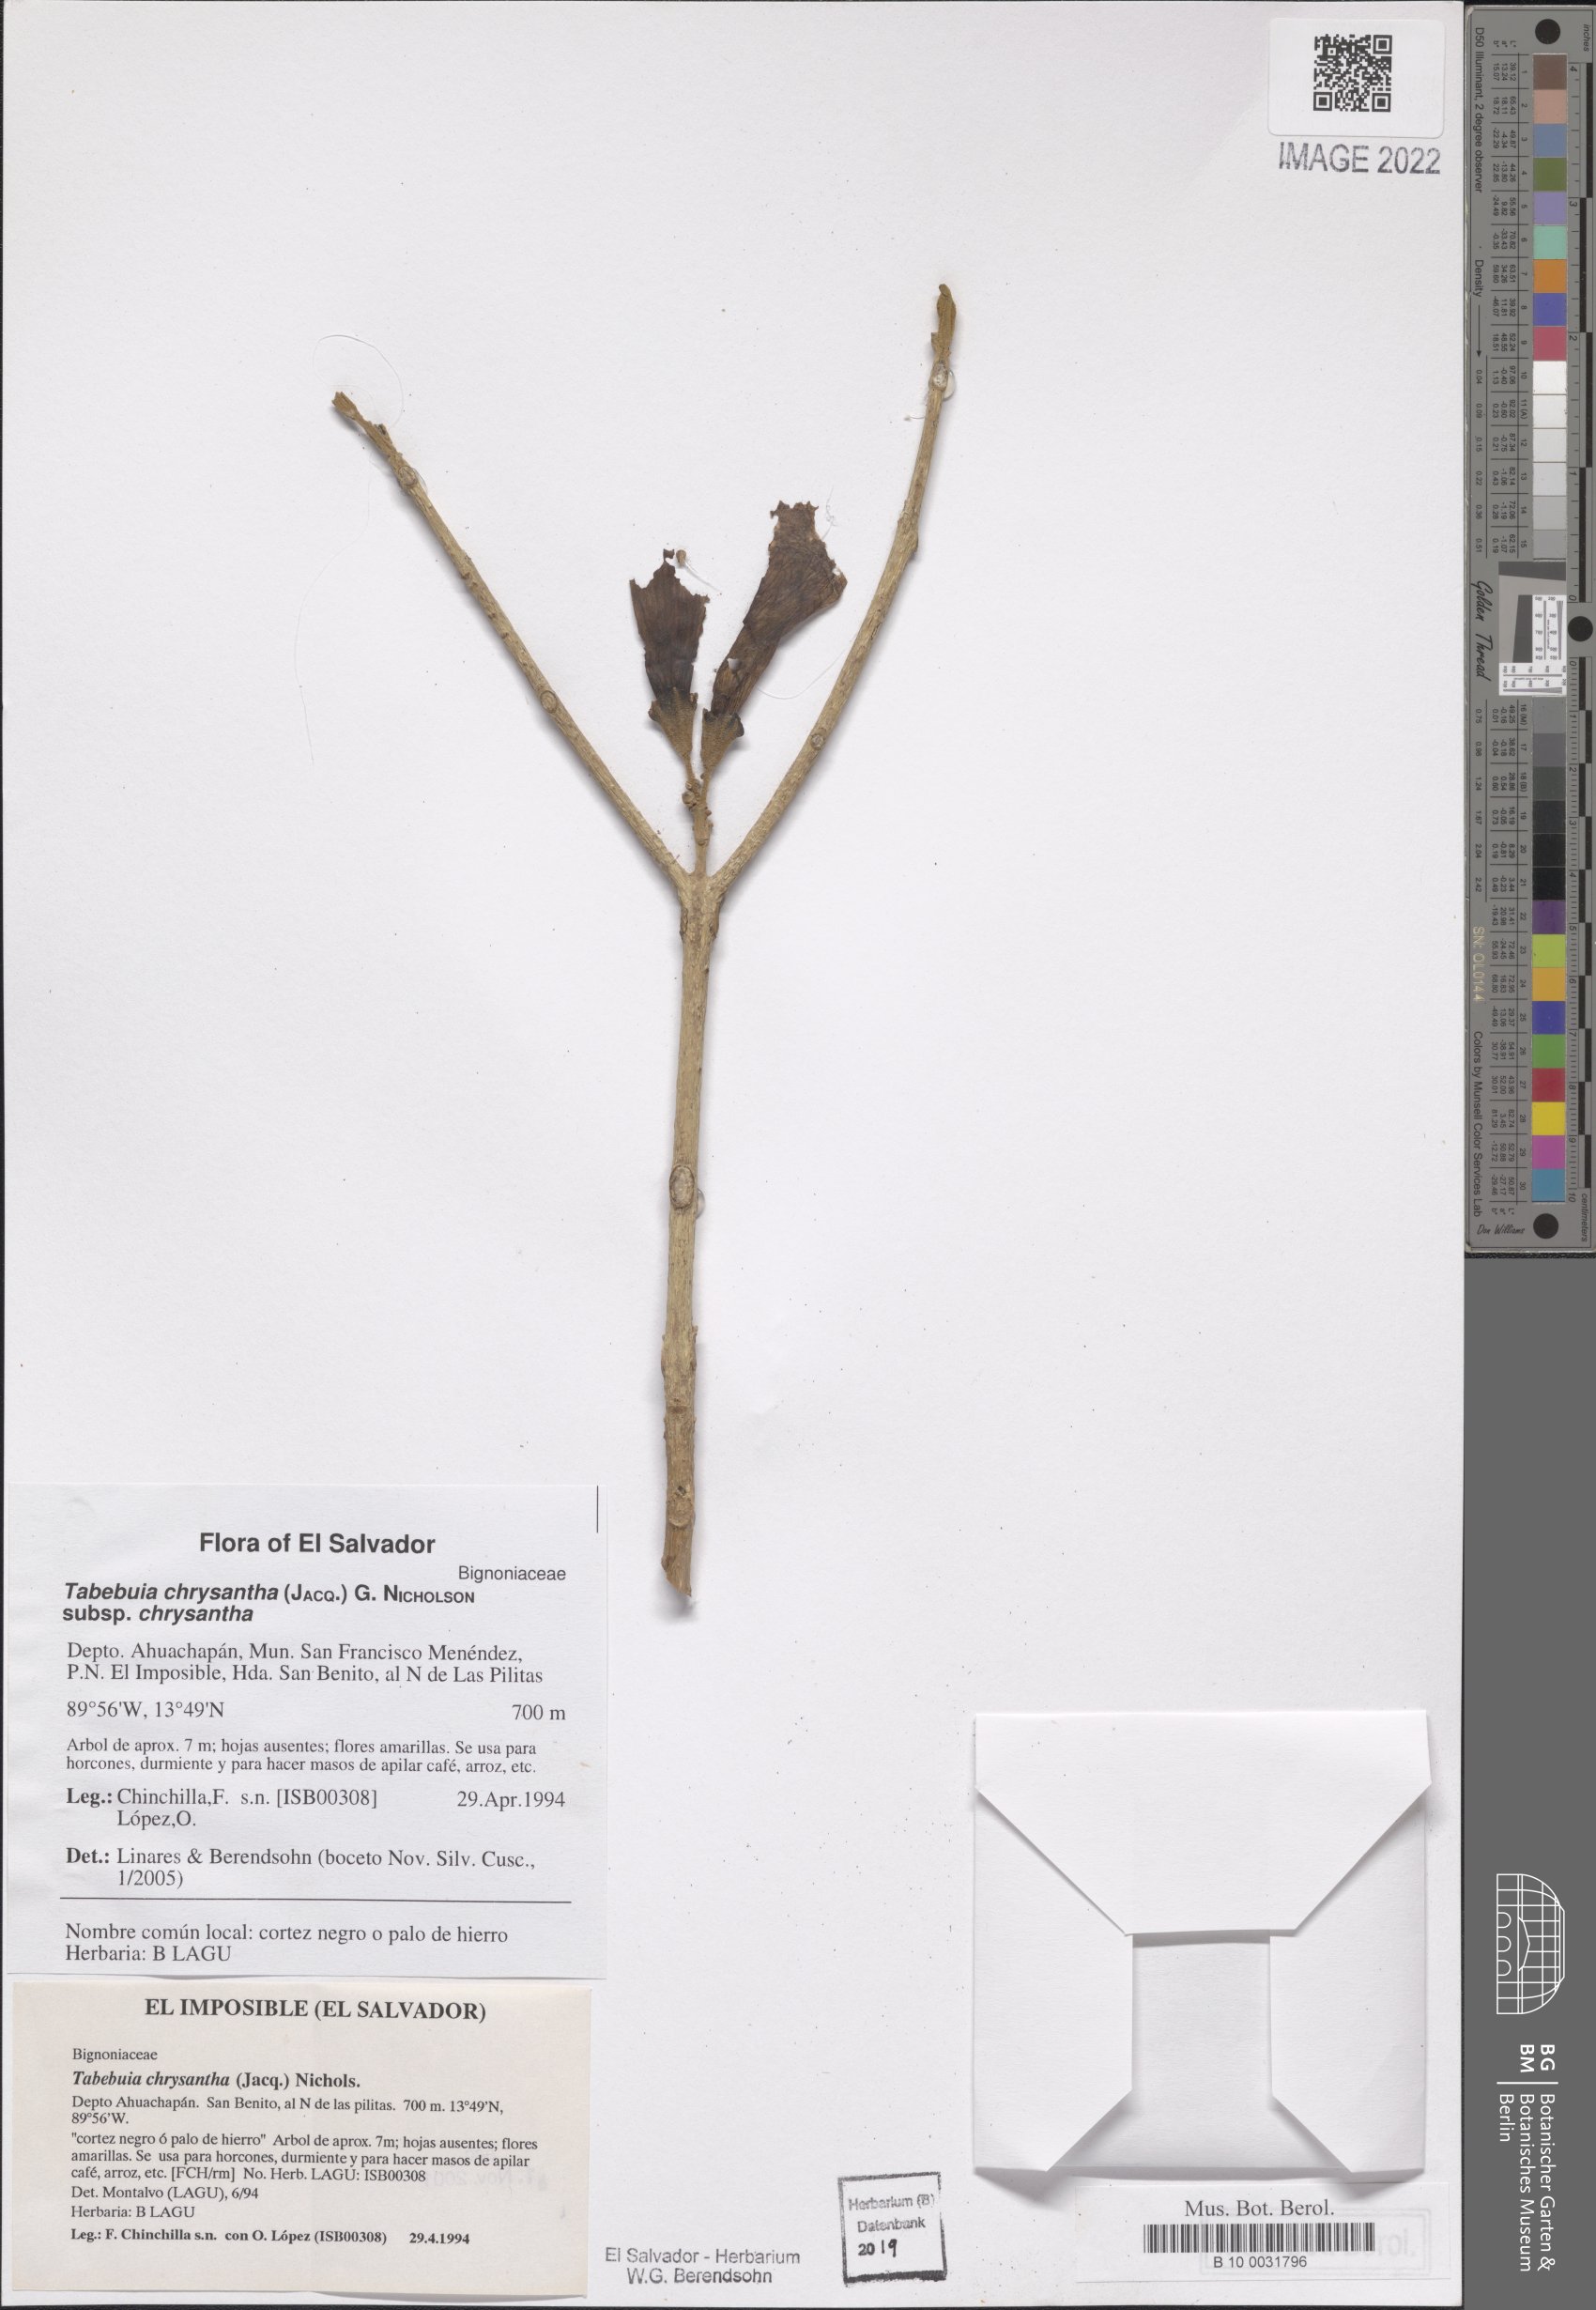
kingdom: Plantae
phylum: Tracheophyta
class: Magnoliopsida
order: Lamiales
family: Bignoniaceae
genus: Handroanthus
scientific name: Handroanthus chrysanthus
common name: Trumpet trees
